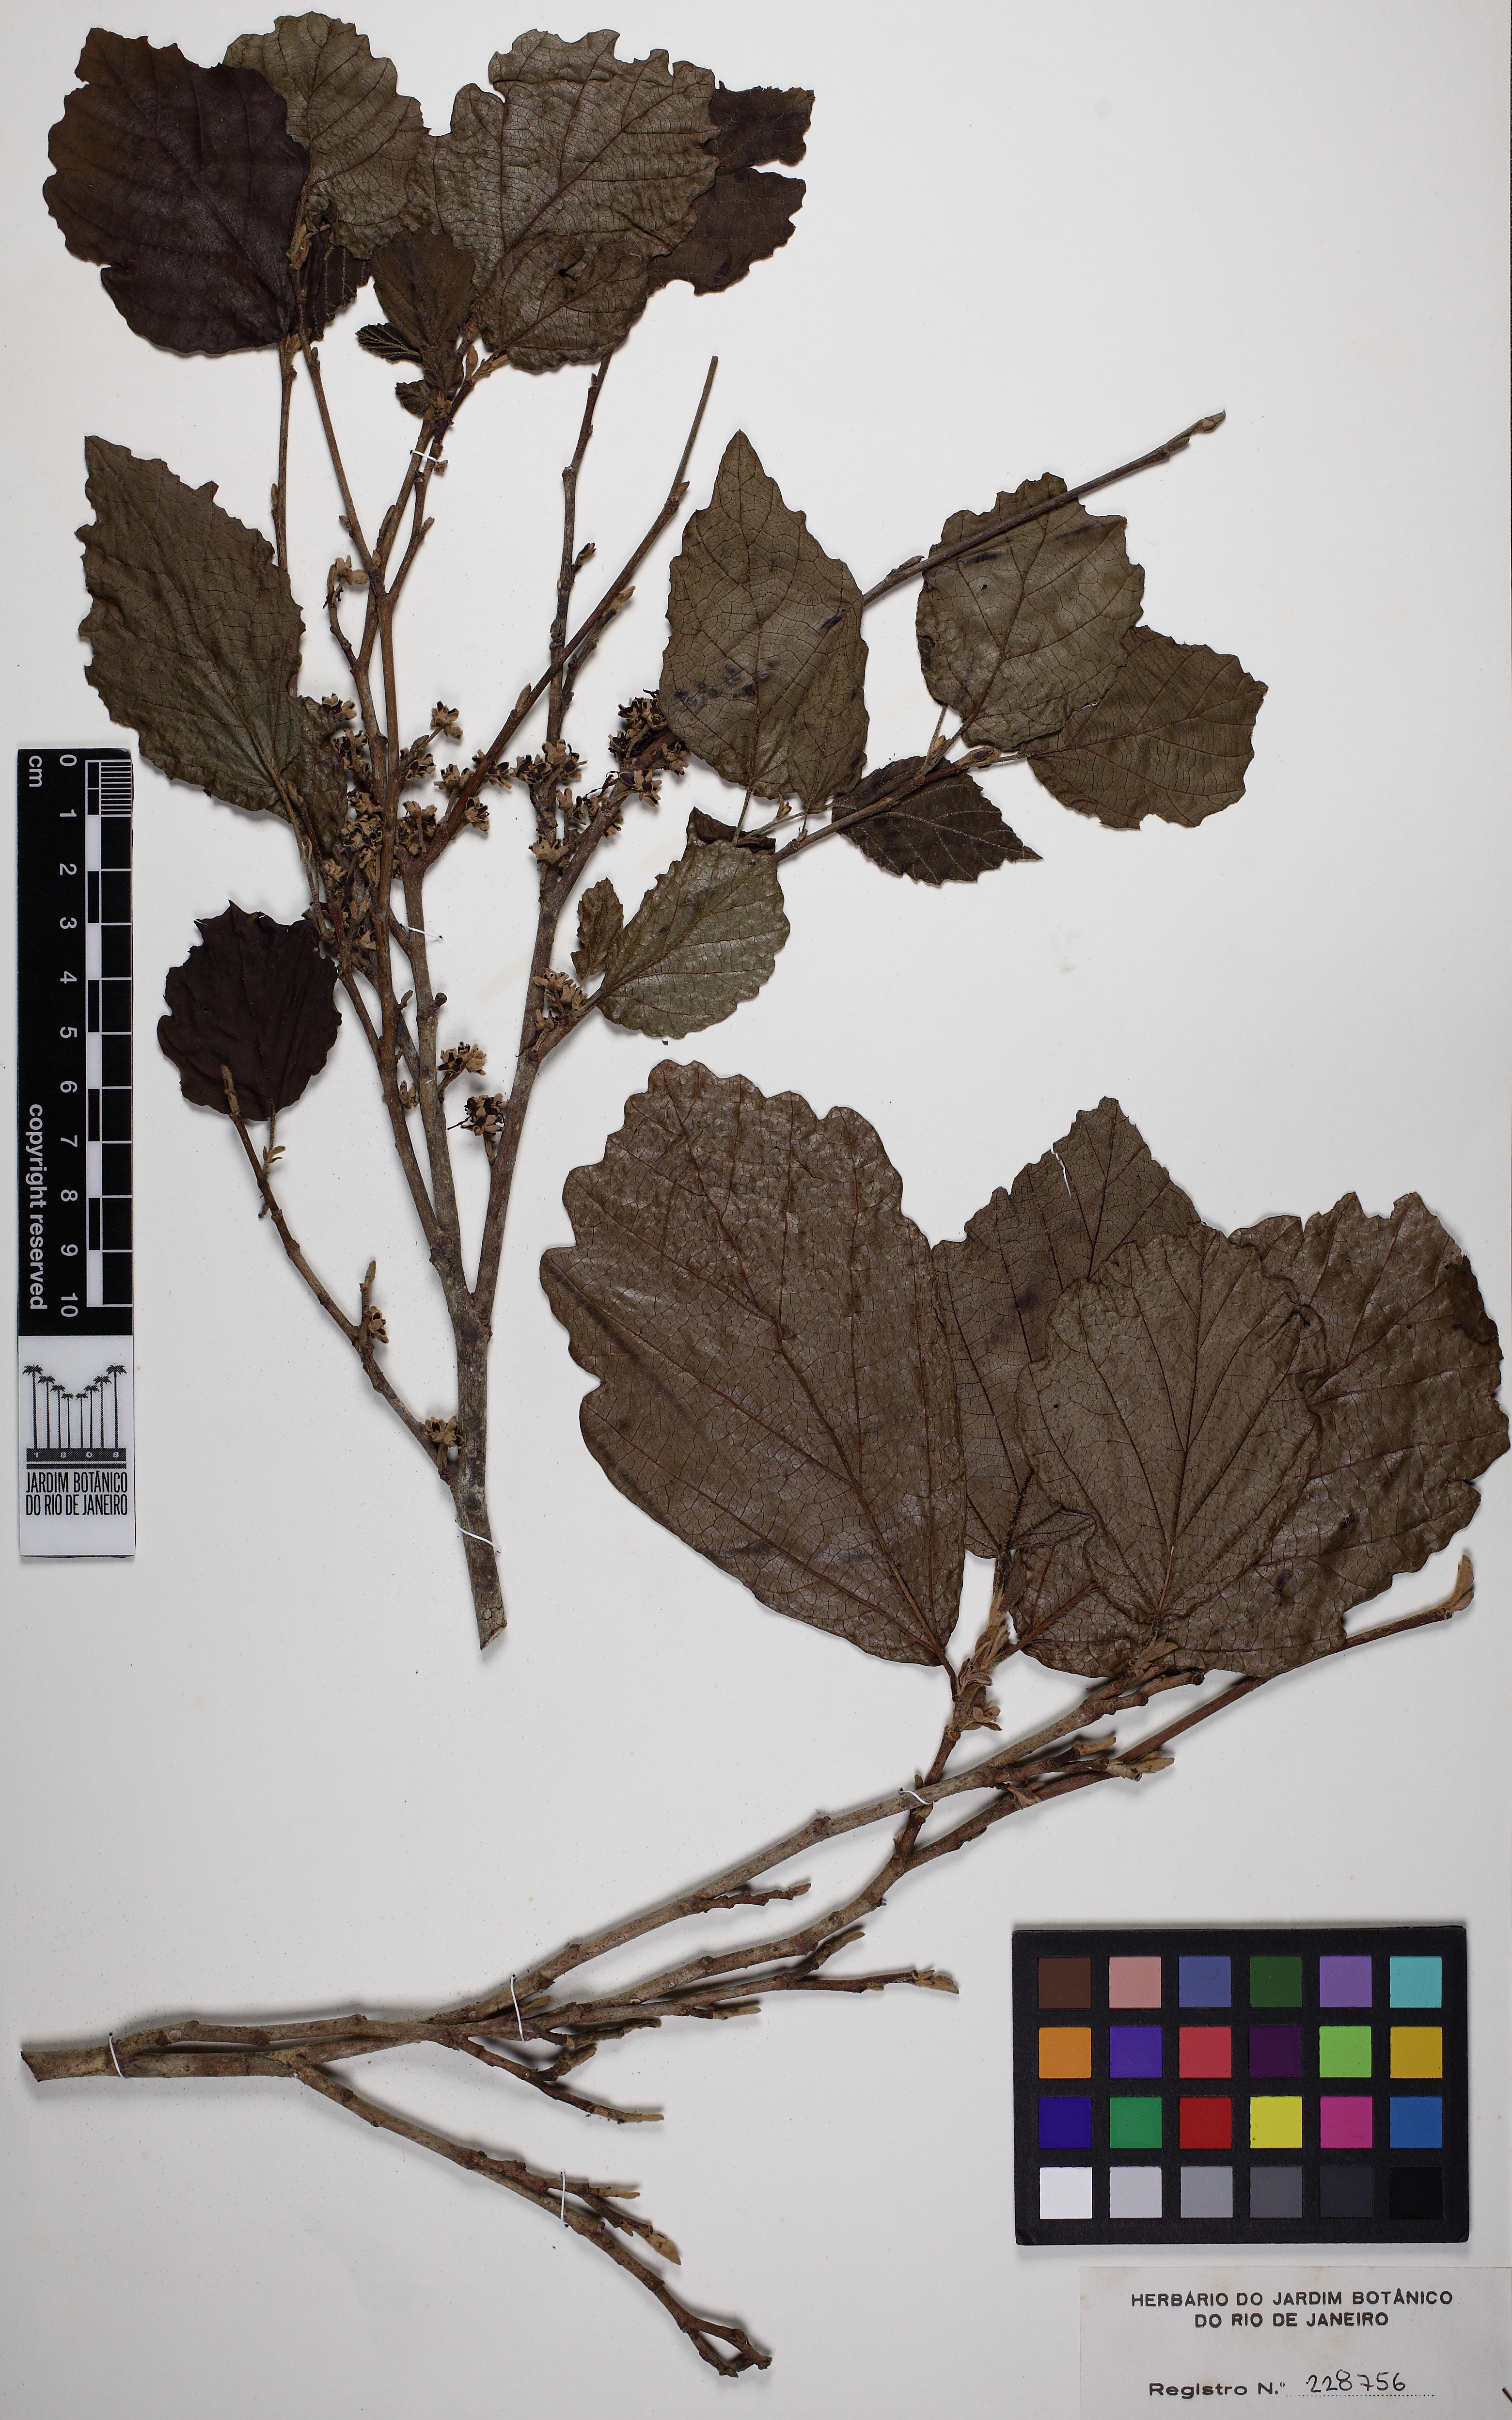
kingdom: Plantae
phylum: Tracheophyta
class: Magnoliopsida
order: Saxifragales
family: Hamamelidaceae
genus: Hamamelis
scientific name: Hamamelis virginiana
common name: Witch-hazel
